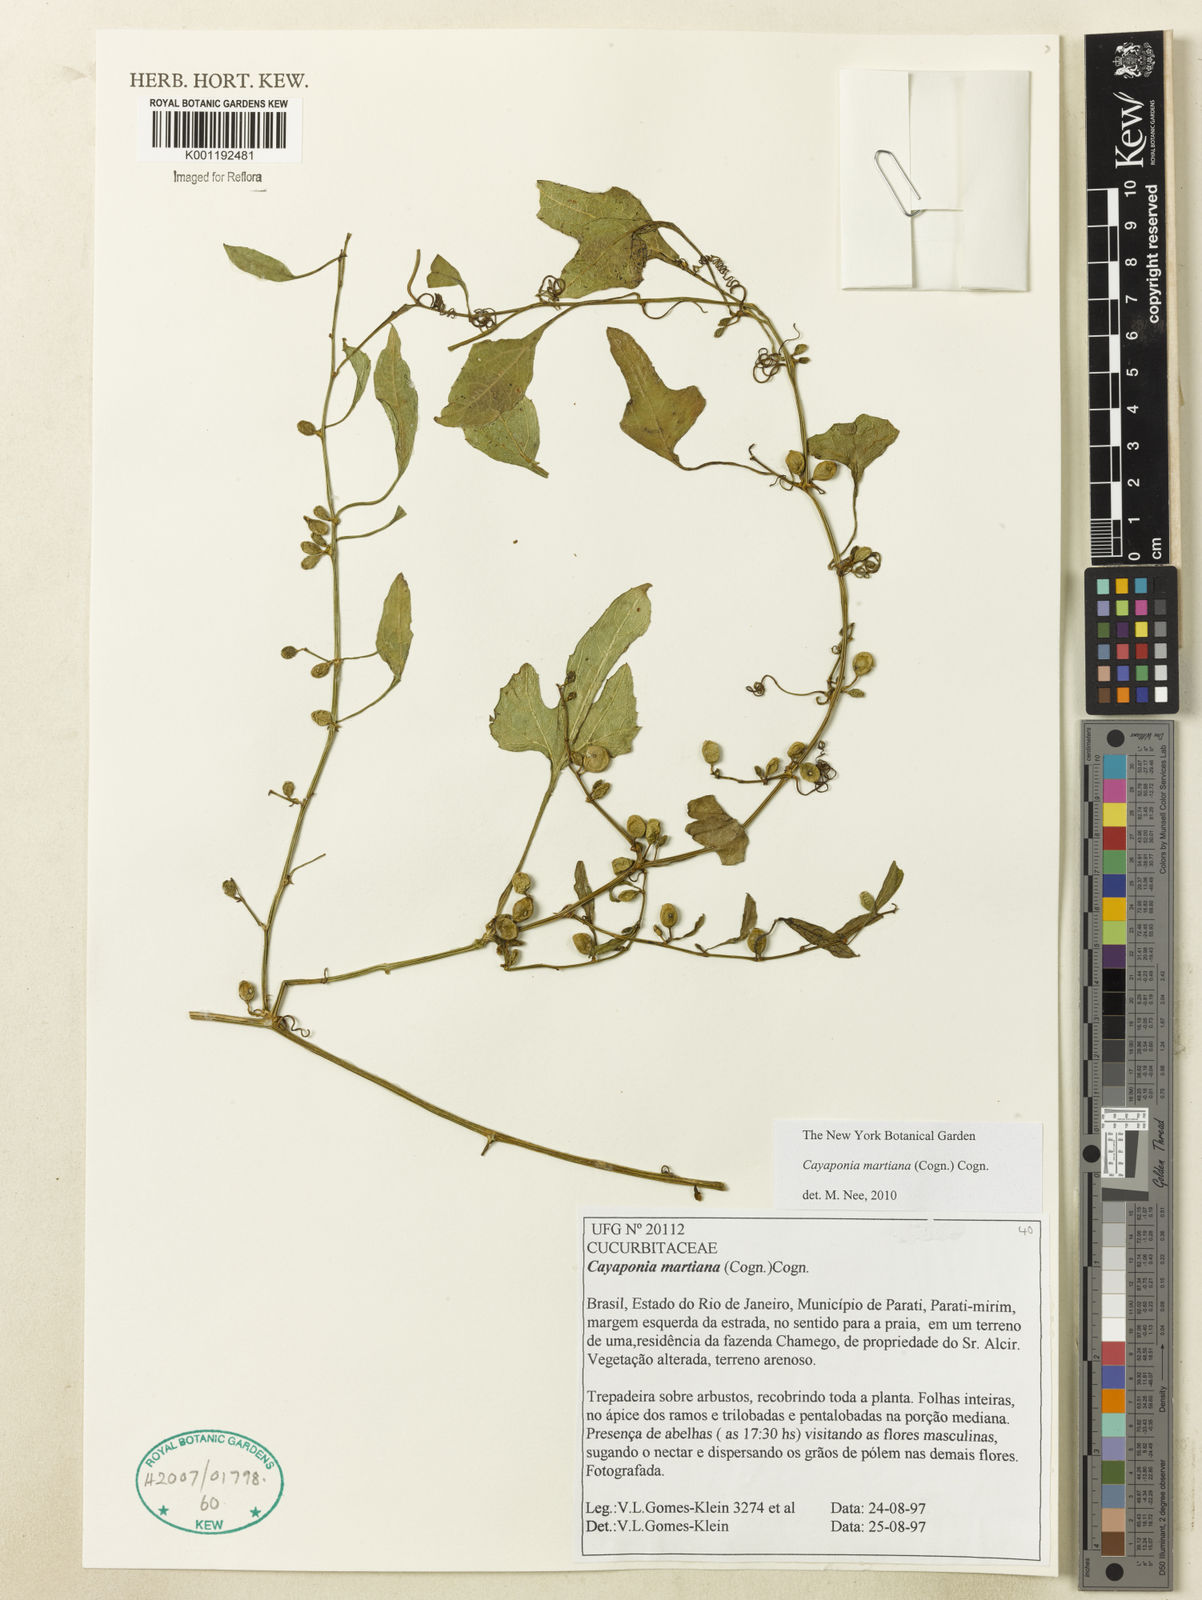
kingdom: Plantae
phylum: Tracheophyta
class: Magnoliopsida
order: Cucurbitales
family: Cucurbitaceae
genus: Cayaponia
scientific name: Cayaponia martiana
